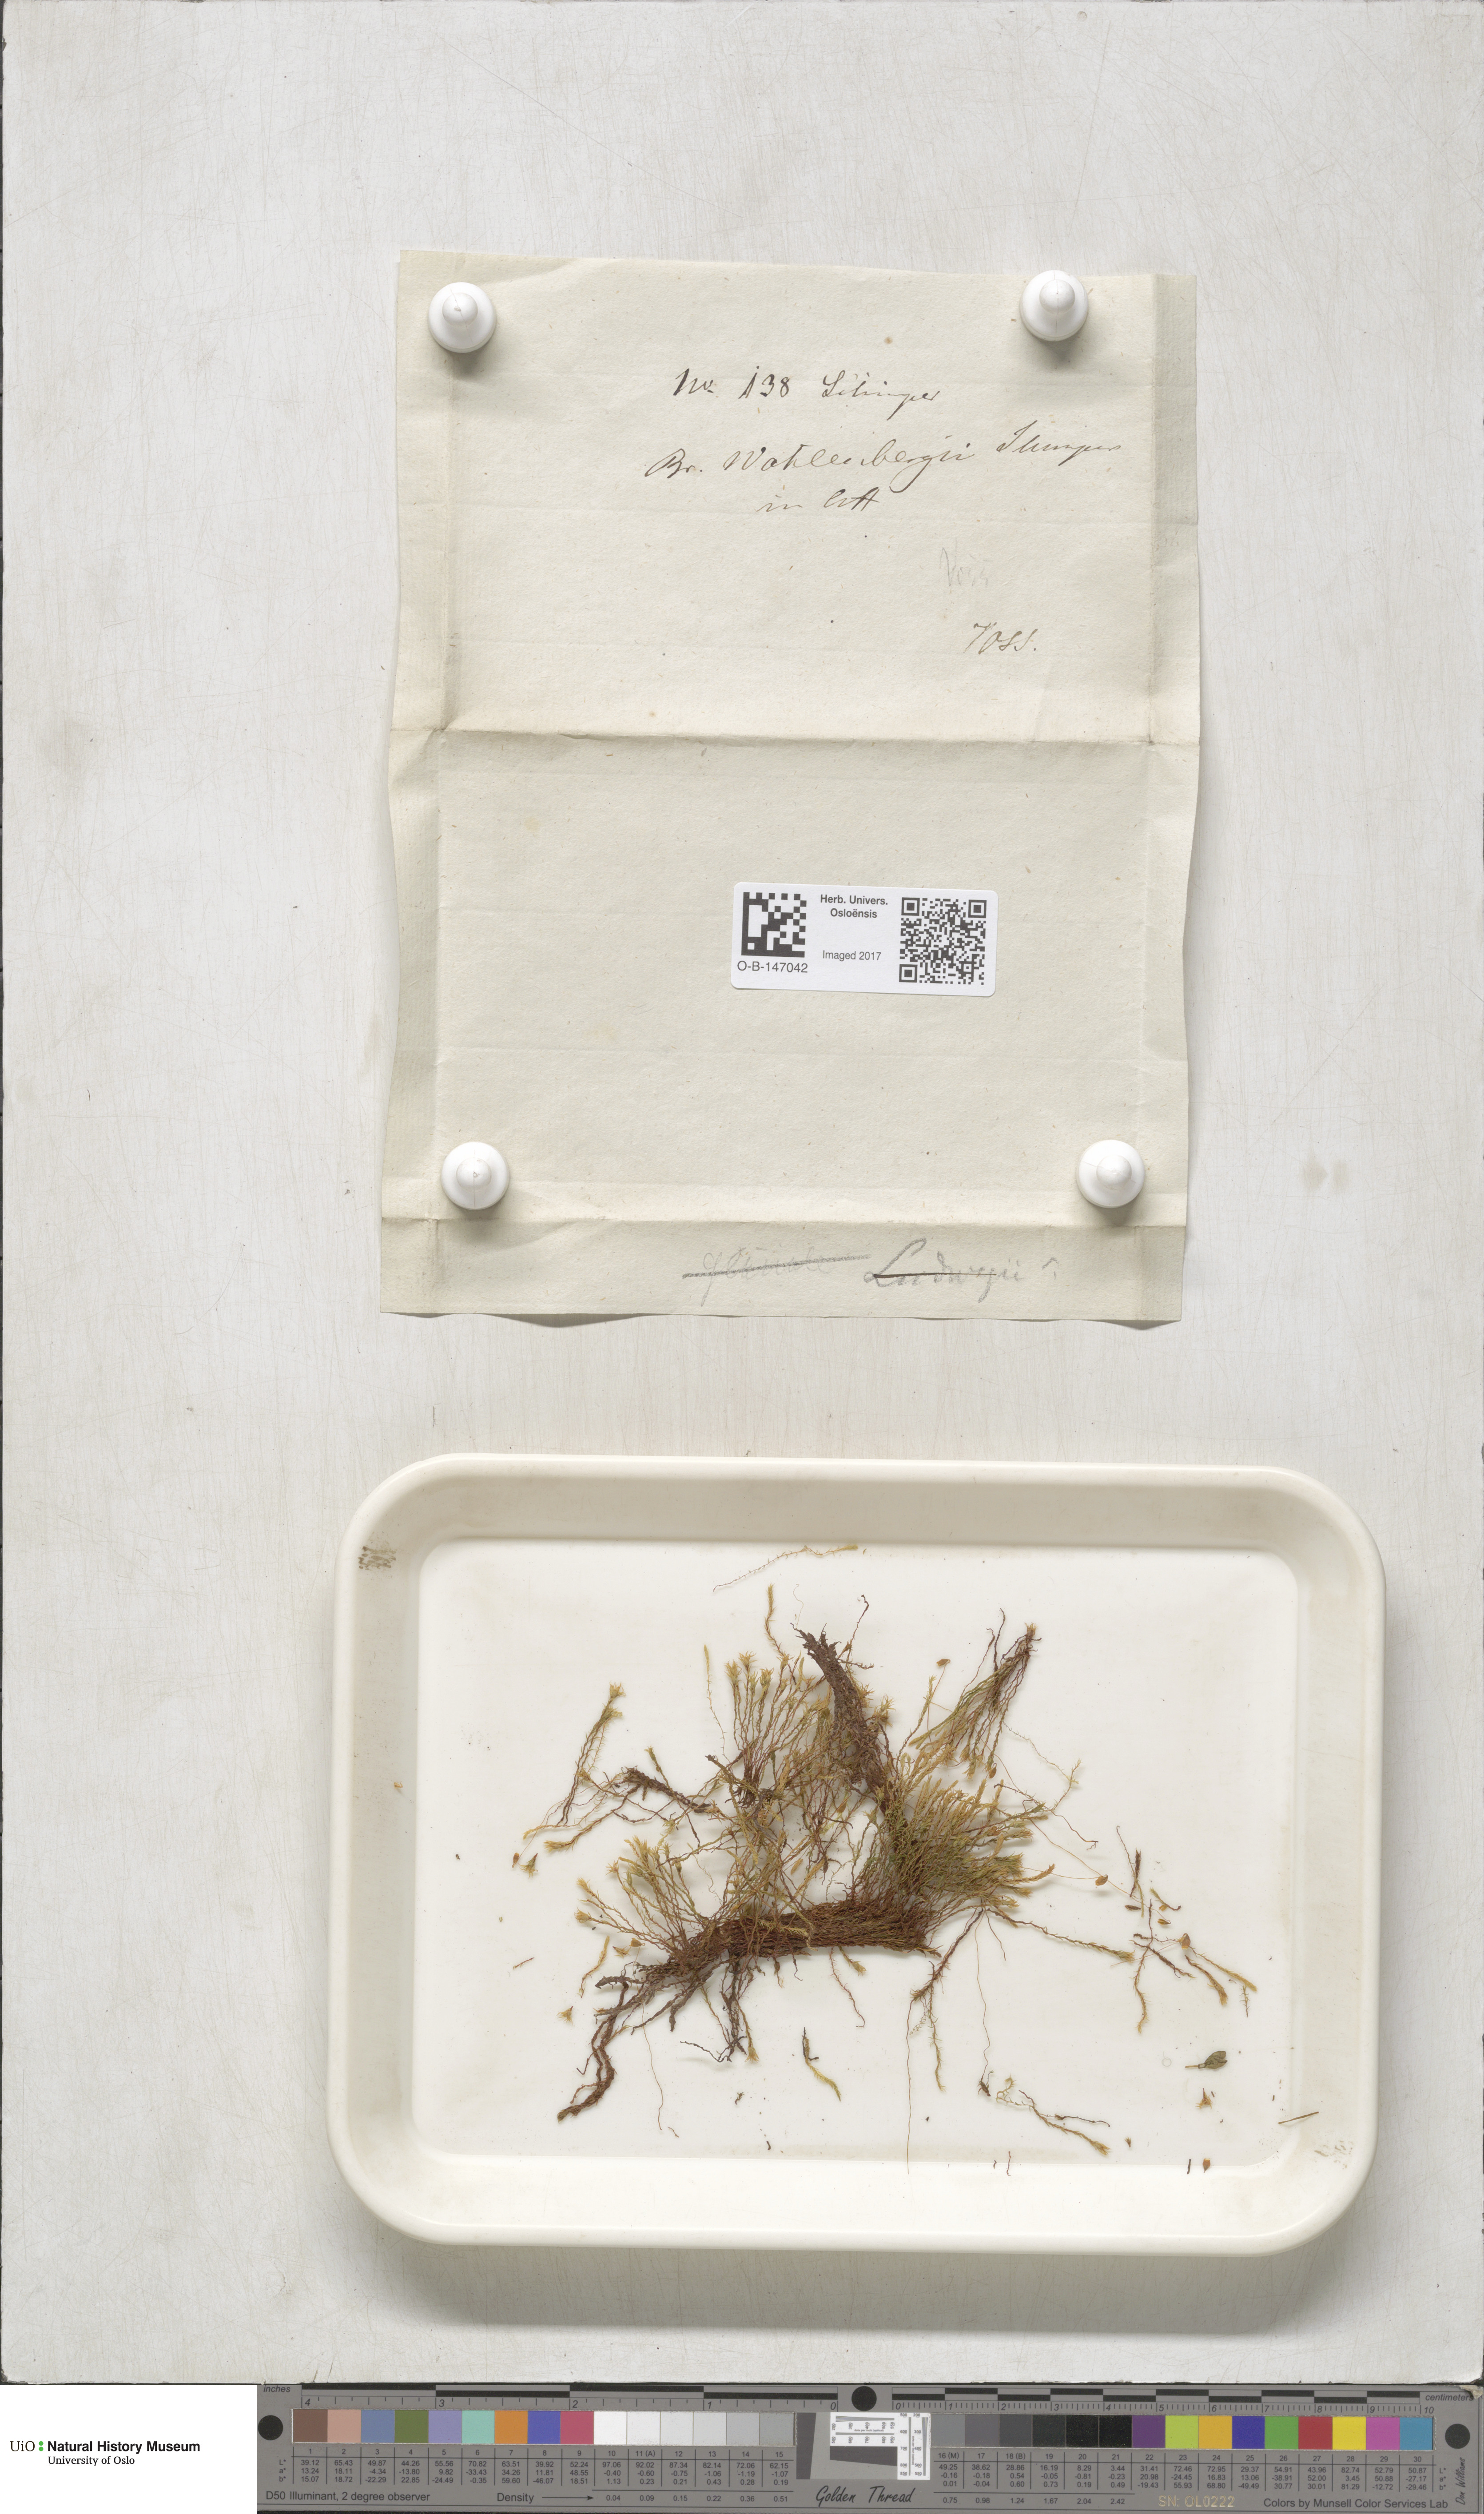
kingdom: Plantae
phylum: Bryophyta
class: Bryopsida
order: Bryales
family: Mniaceae
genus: Pohlia
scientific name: Pohlia wahlenbergii
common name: Wahlenberg's nodding moss
